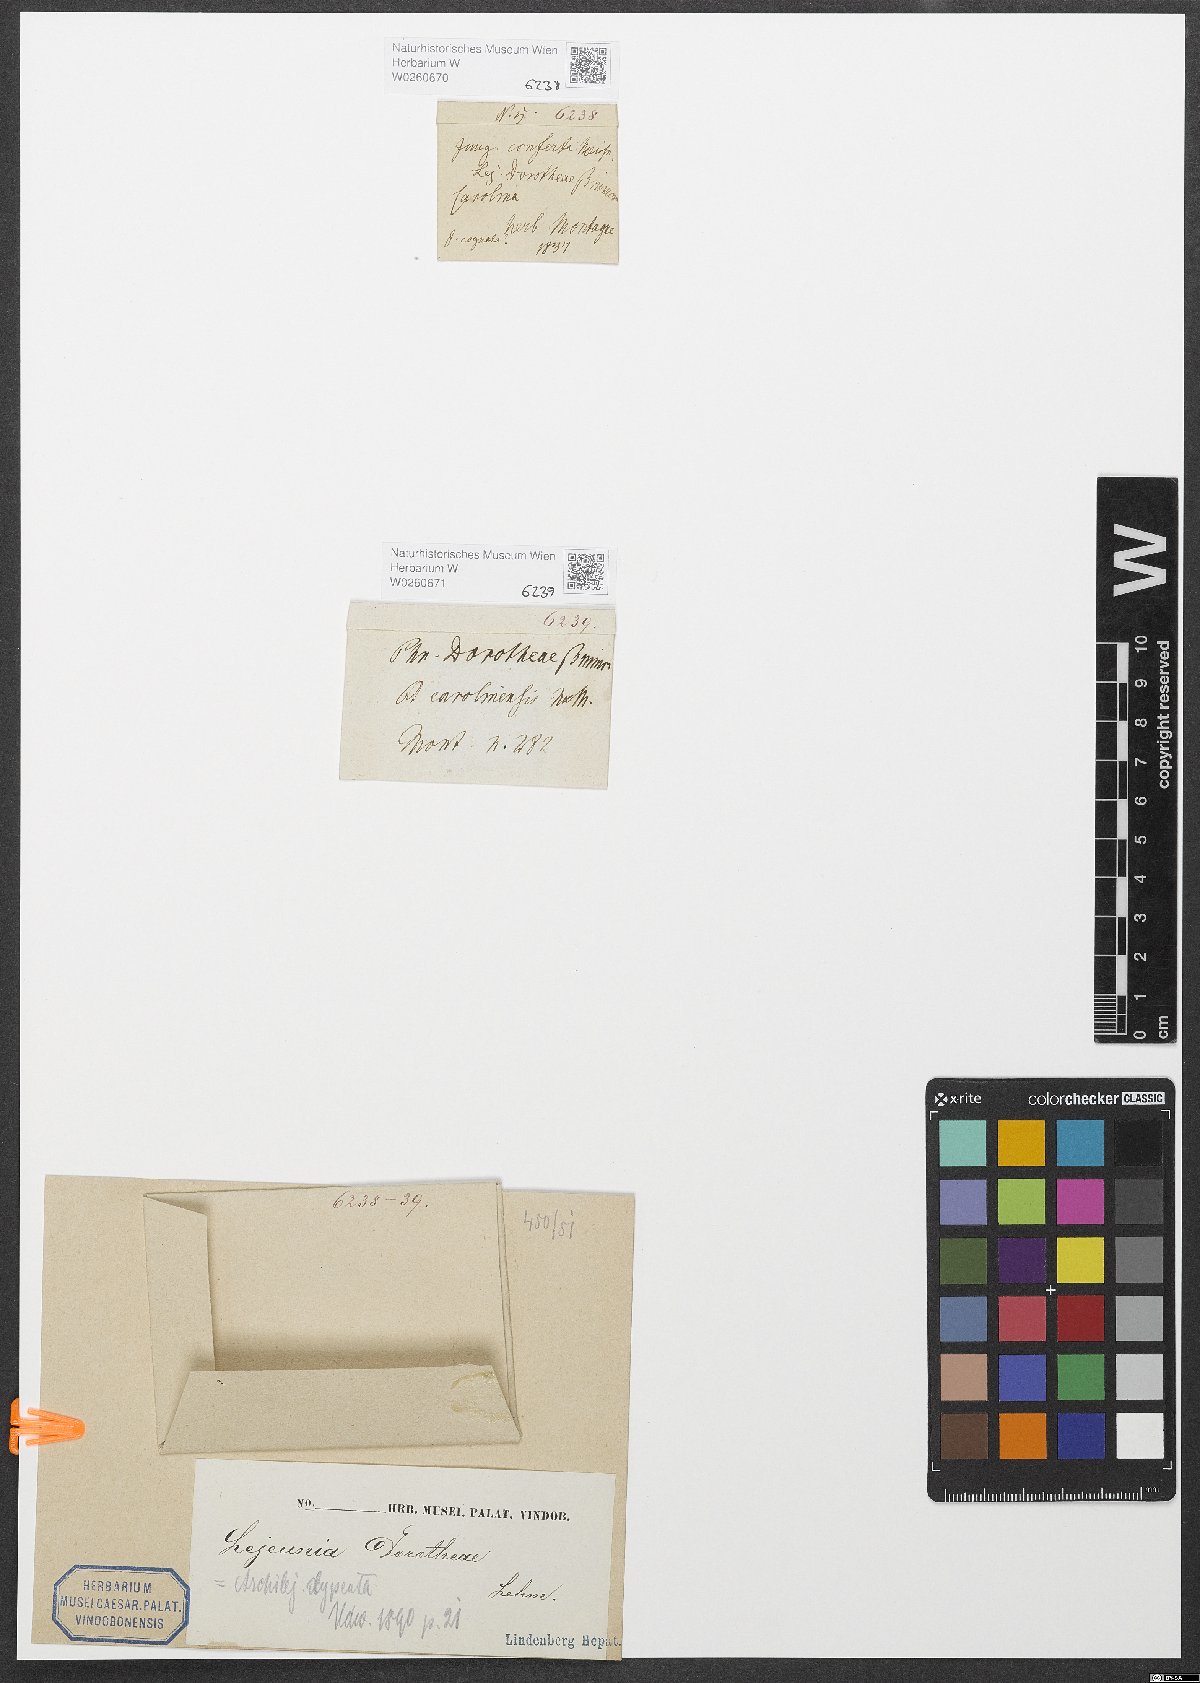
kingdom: Plantae
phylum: Marchantiophyta
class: Jungermanniopsida
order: Porellales
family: Lejeuneaceae
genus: Cheilolejeunea
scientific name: Cheilolejeunea clypeata
